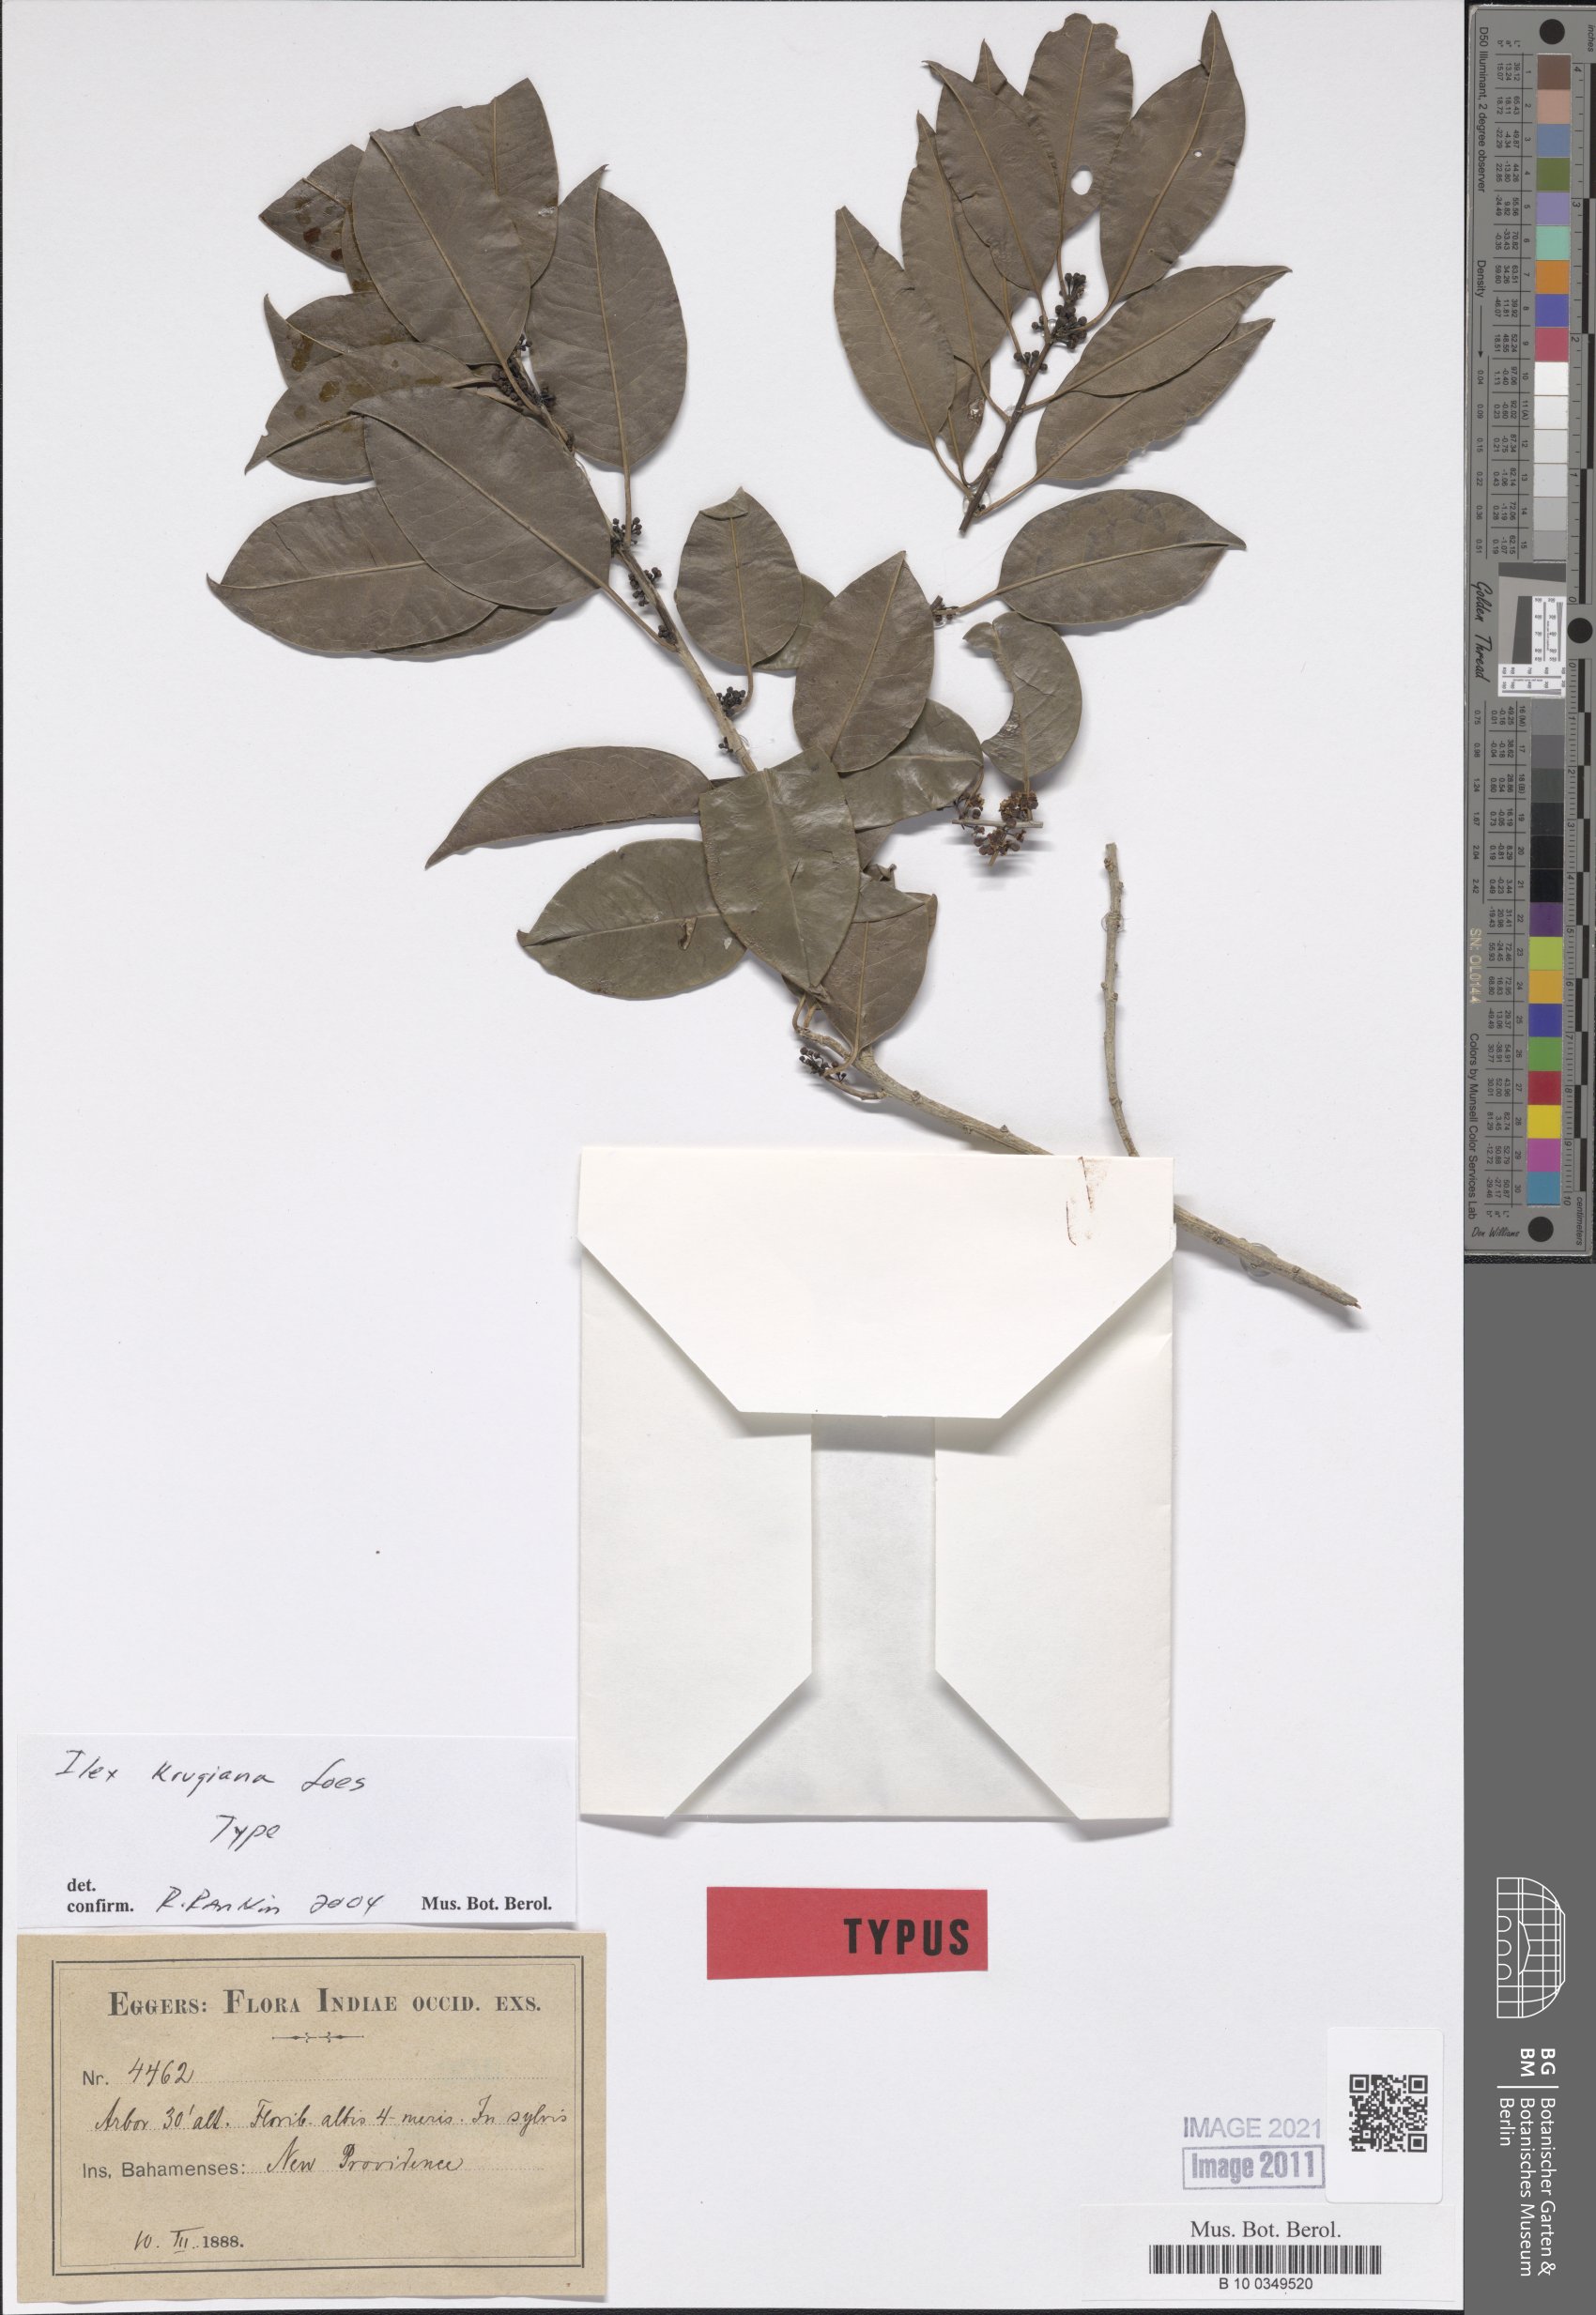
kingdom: Plantae
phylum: Tracheophyta
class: Magnoliopsida
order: Aquifoliales
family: Aquifoliaceae
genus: Ilex
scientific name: Ilex krugiana
